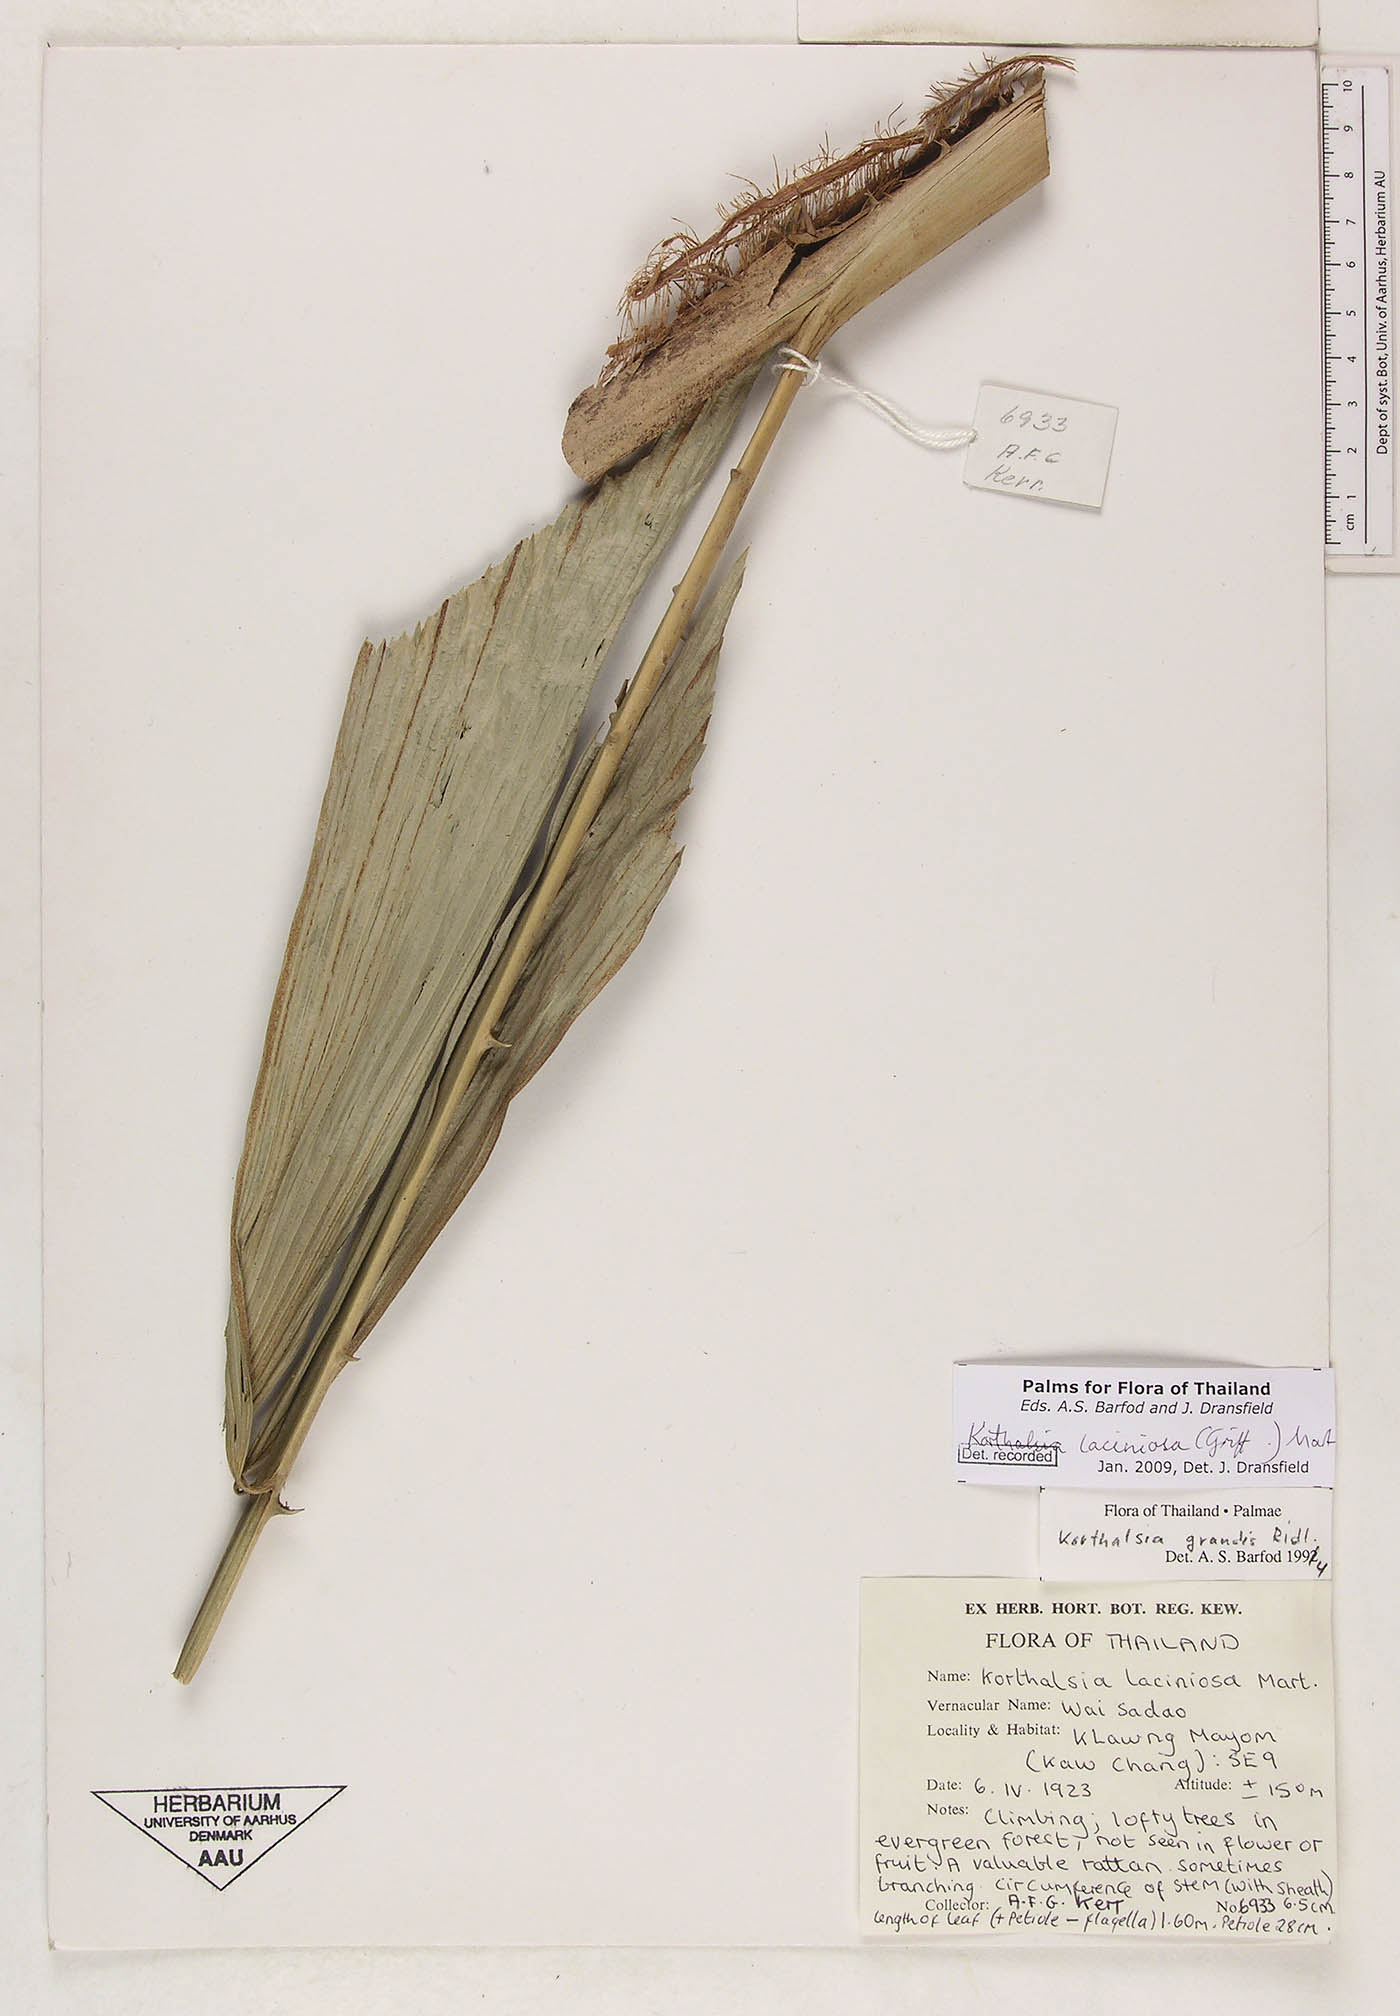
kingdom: Plantae
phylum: Tracheophyta
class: Liliopsida
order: Arecales
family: Arecaceae
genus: Korthalsia
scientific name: Korthalsia laciniosa
